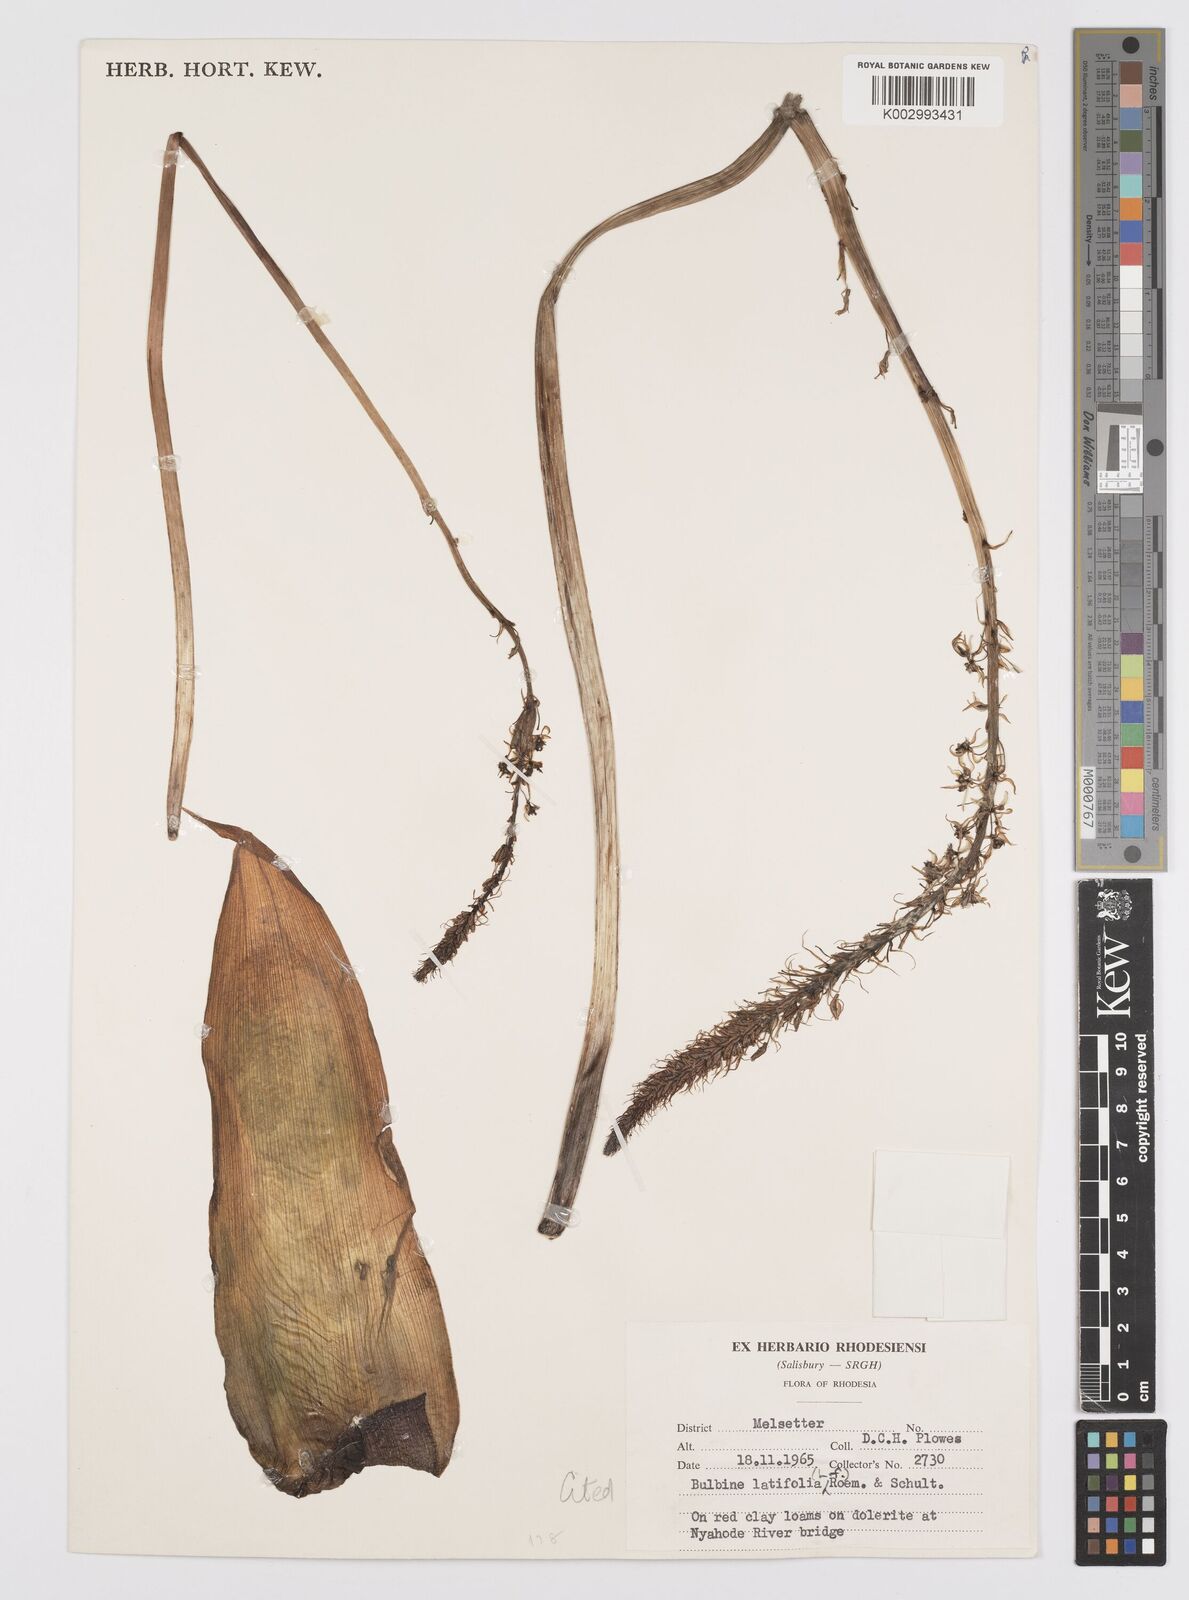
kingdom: Plantae
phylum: Tracheophyta
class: Liliopsida
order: Asparagales
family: Asphodelaceae
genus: Bulbine
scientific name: Bulbine
